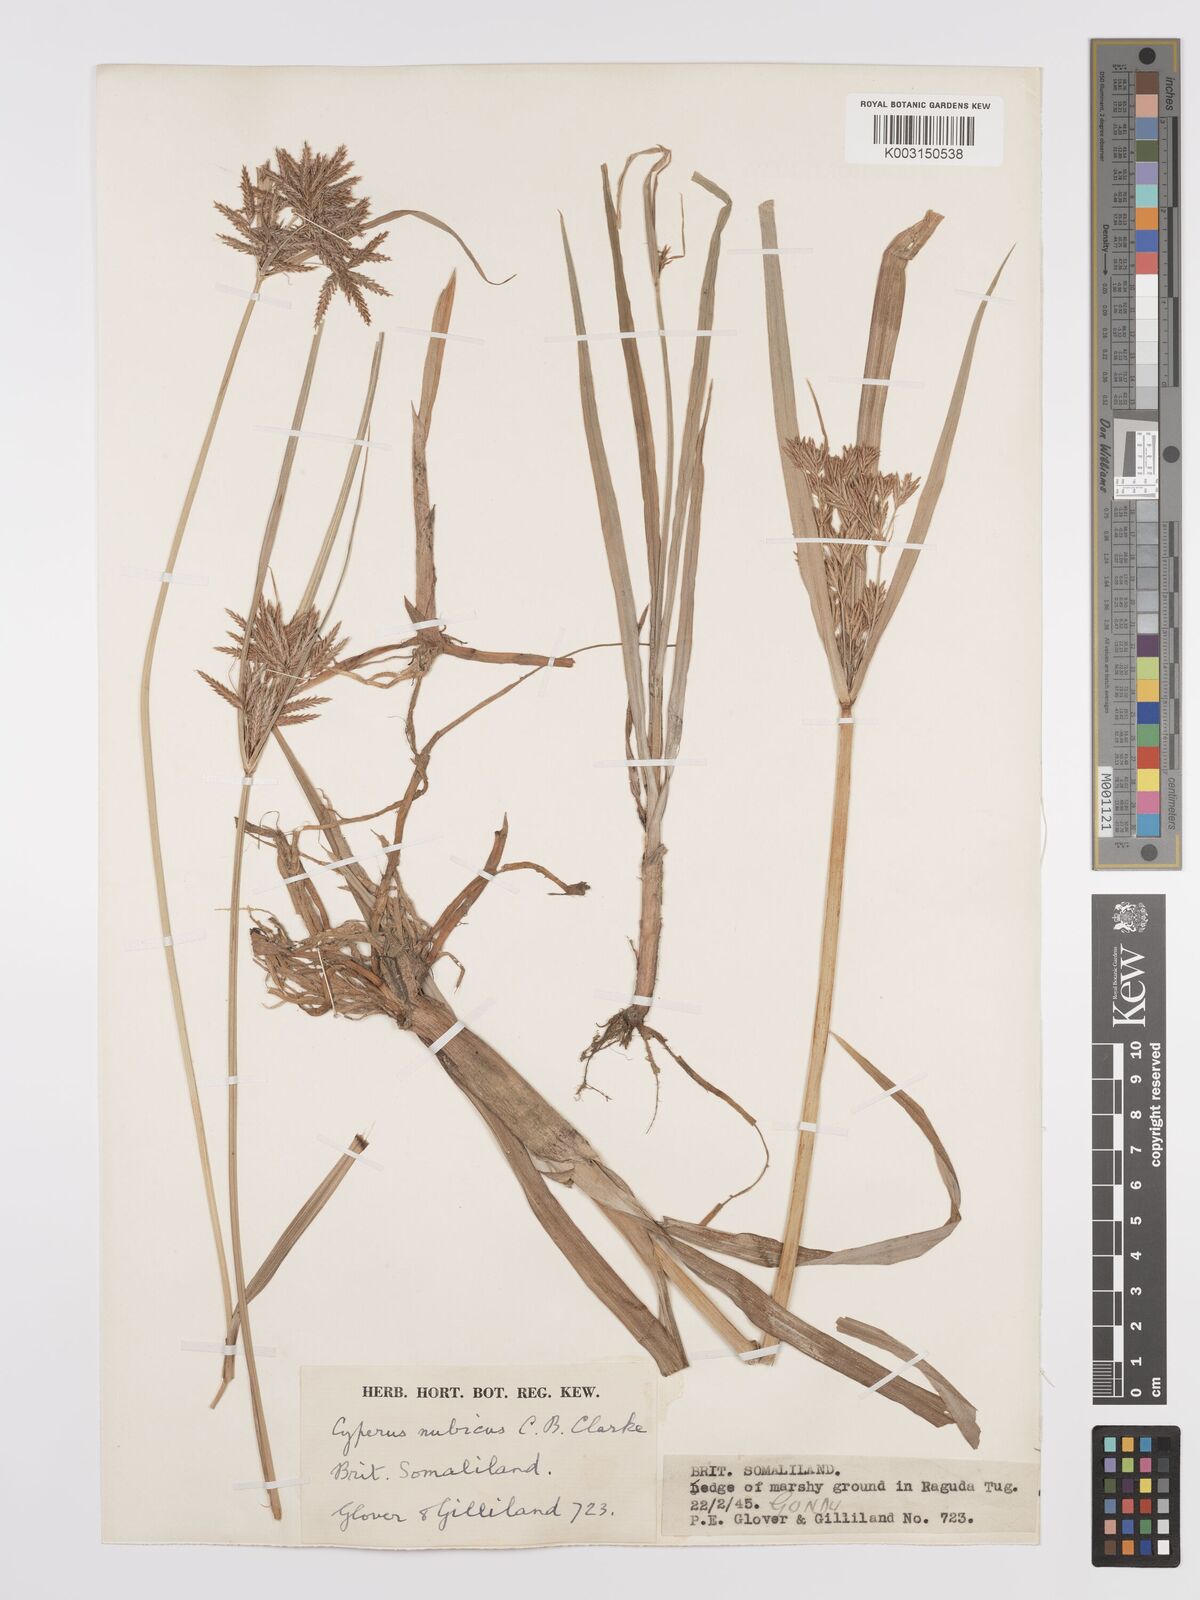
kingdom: Plantae
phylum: Tracheophyta
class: Liliopsida
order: Poales
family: Cyperaceae
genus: Cyperus
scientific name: Cyperus bifax
